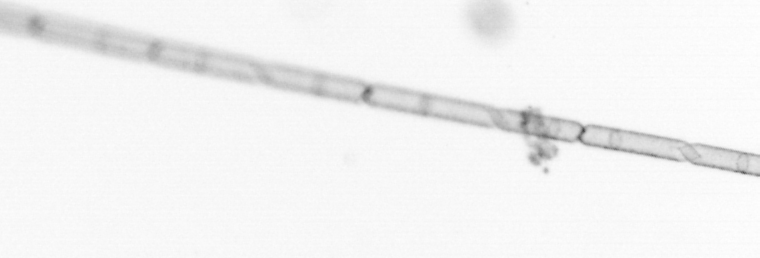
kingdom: Chromista
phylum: Ochrophyta
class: Bacillariophyceae
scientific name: Bacillariophyceae
